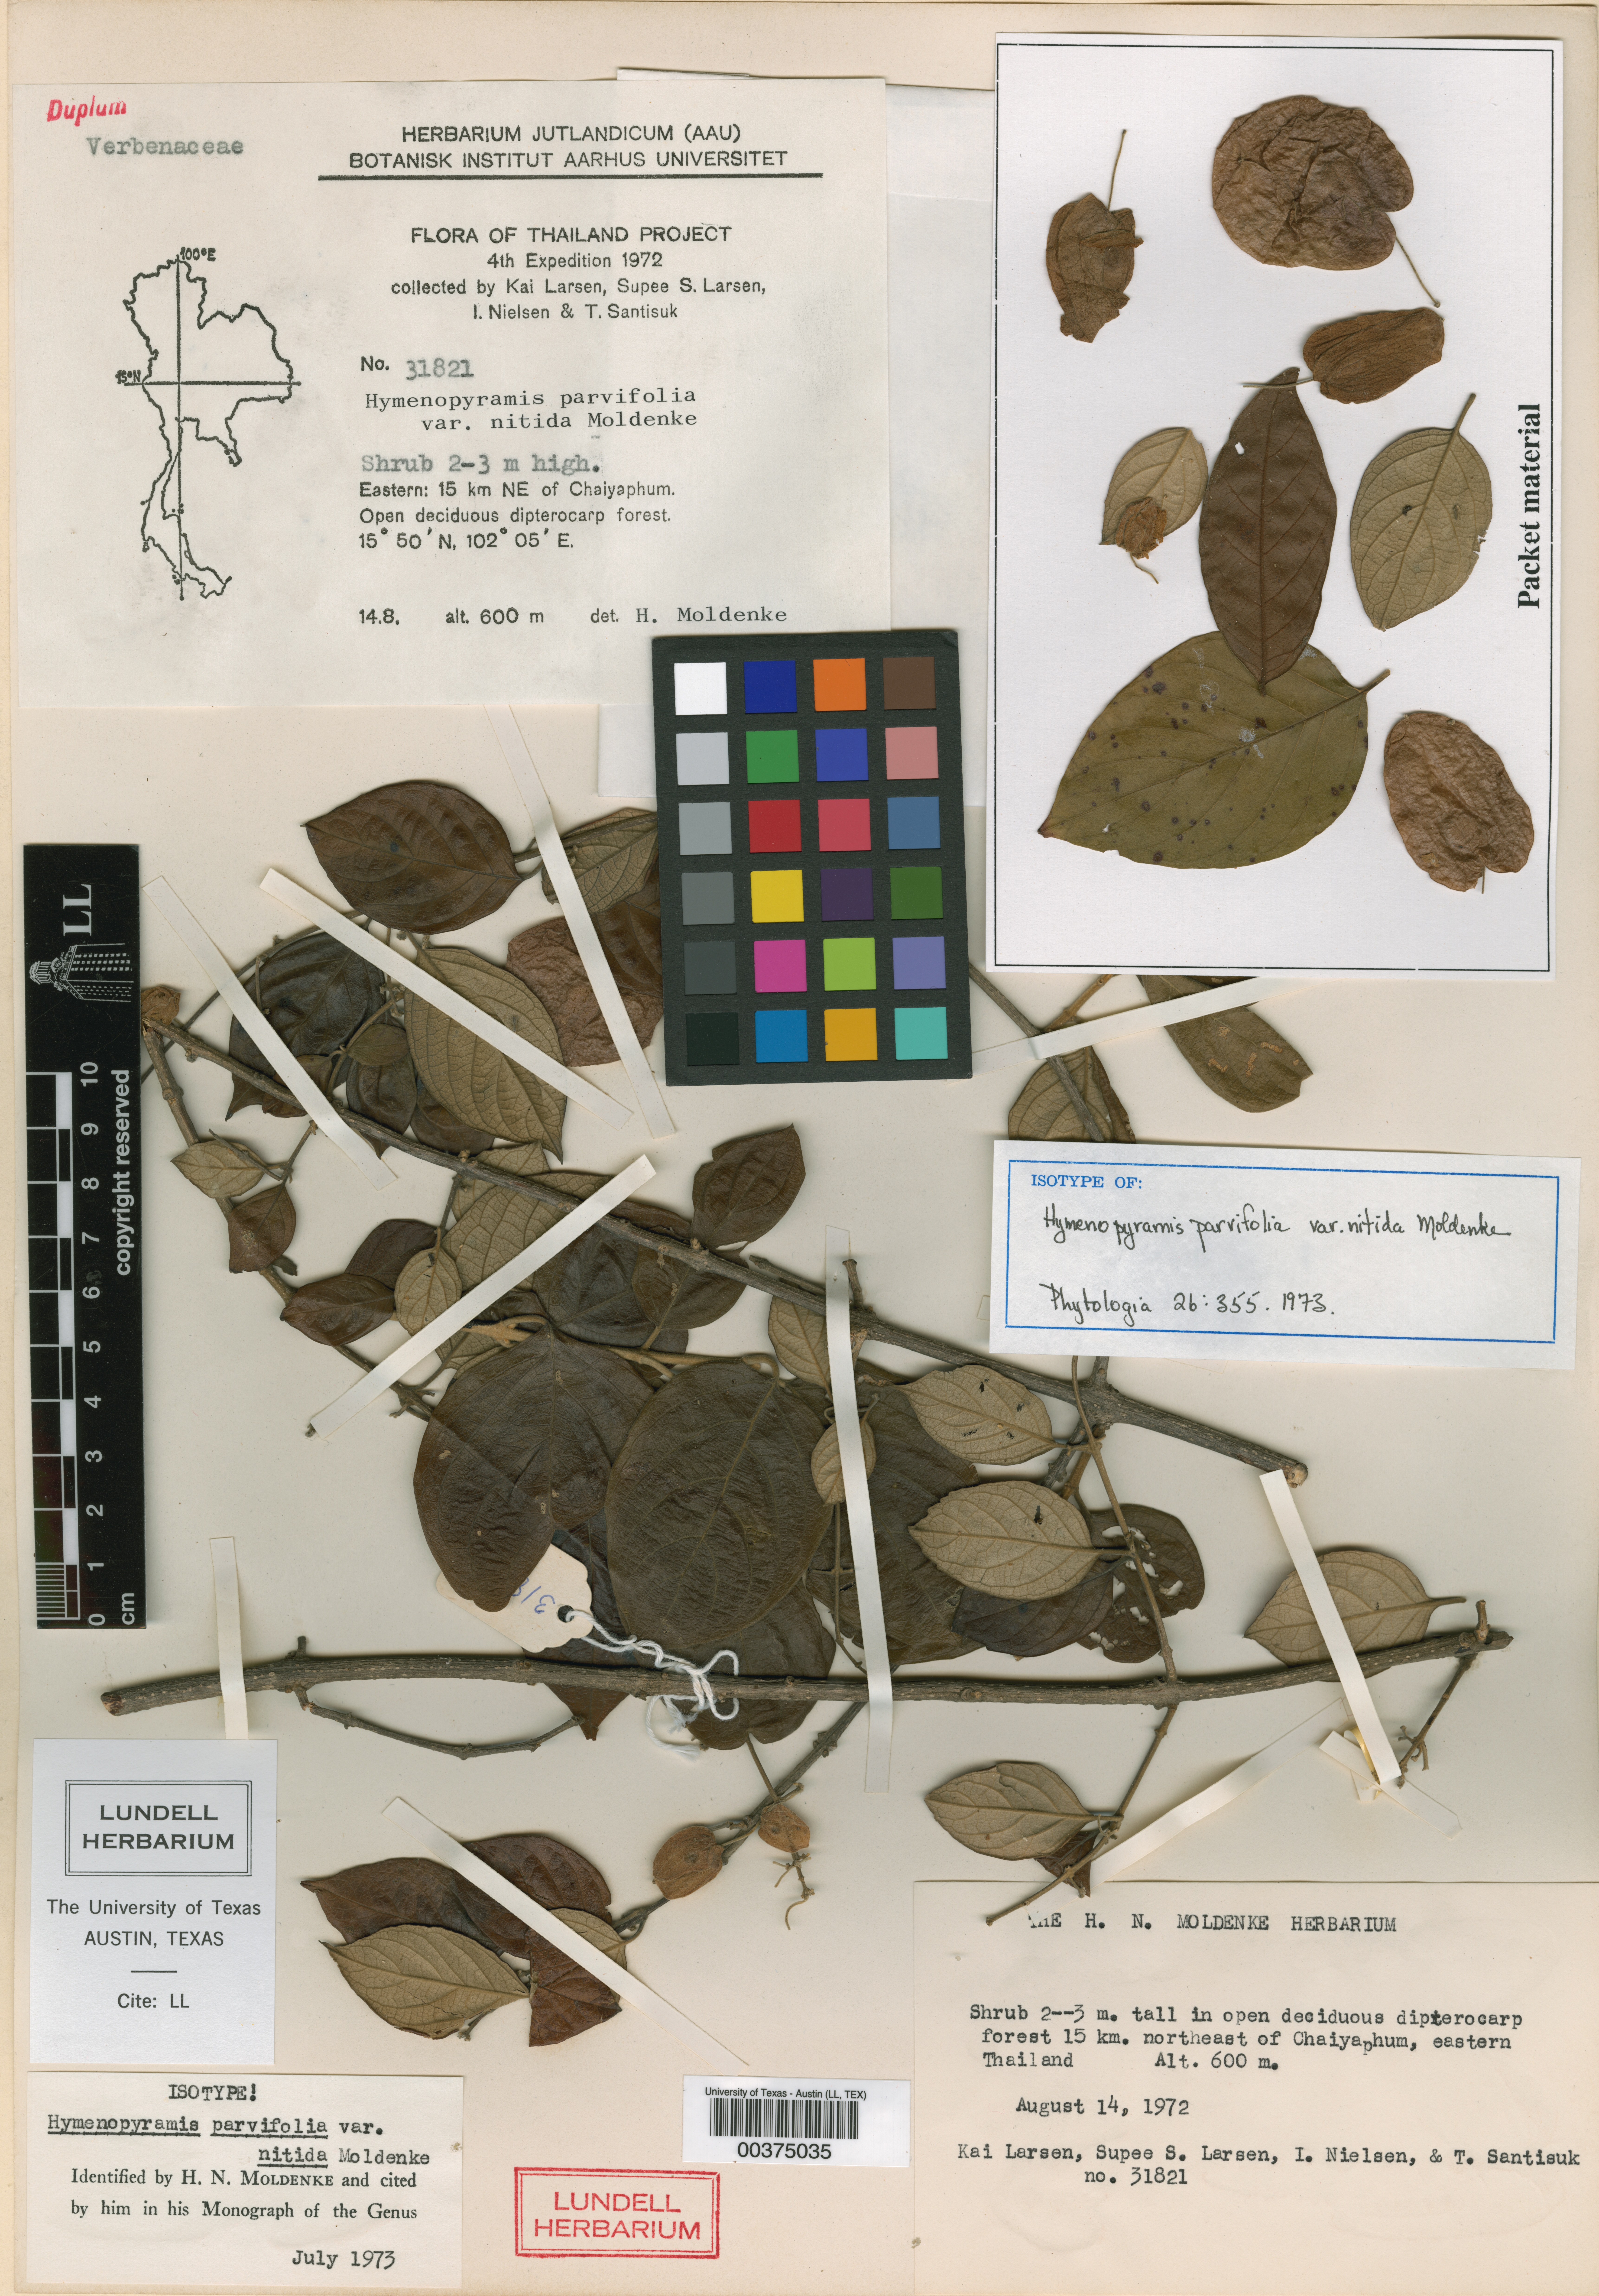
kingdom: Plantae
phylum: Tracheophyta
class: Magnoliopsida
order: Malpighiales
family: Hypericaceae
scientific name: Hypericaceae
